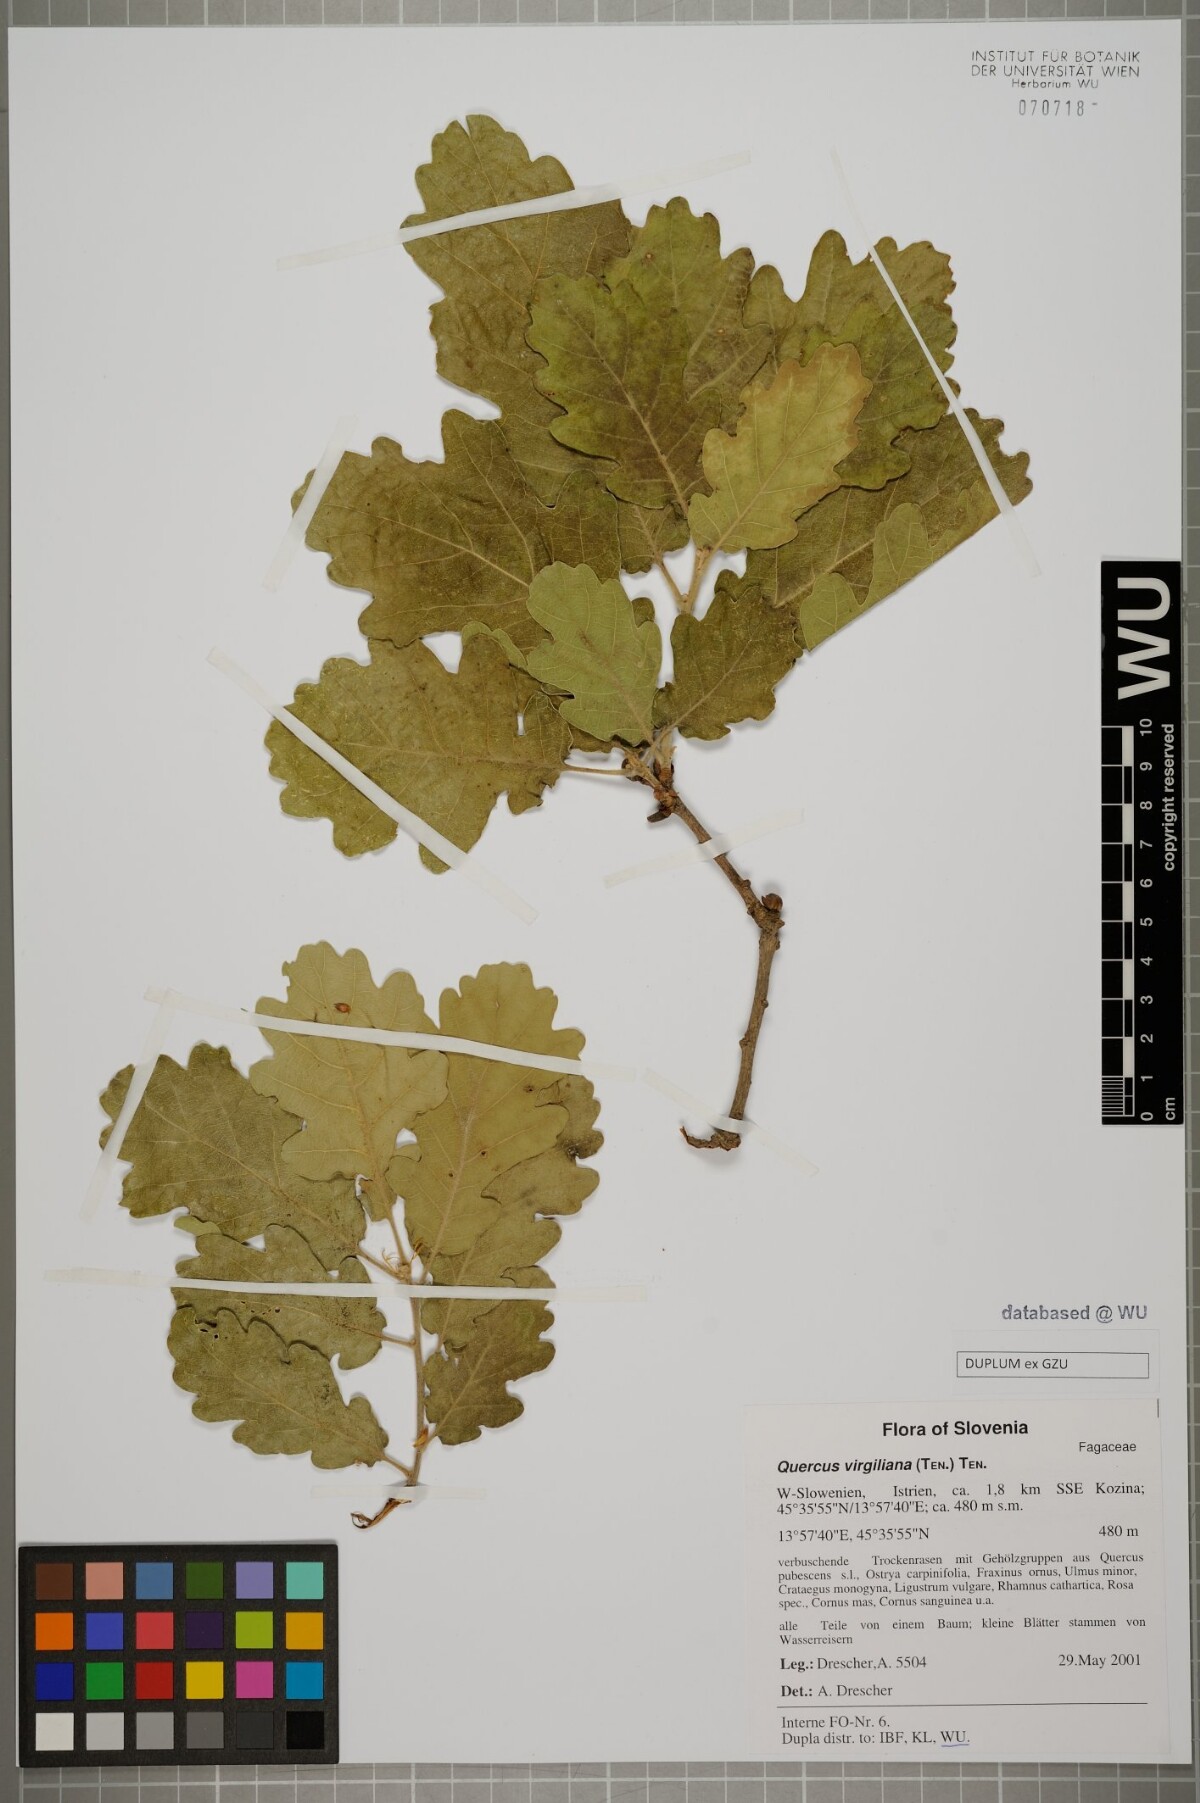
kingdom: Plantae
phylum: Tracheophyta
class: Magnoliopsida
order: Fagales
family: Fagaceae
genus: Quercus
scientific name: Quercus pubescens
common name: Downy oak
